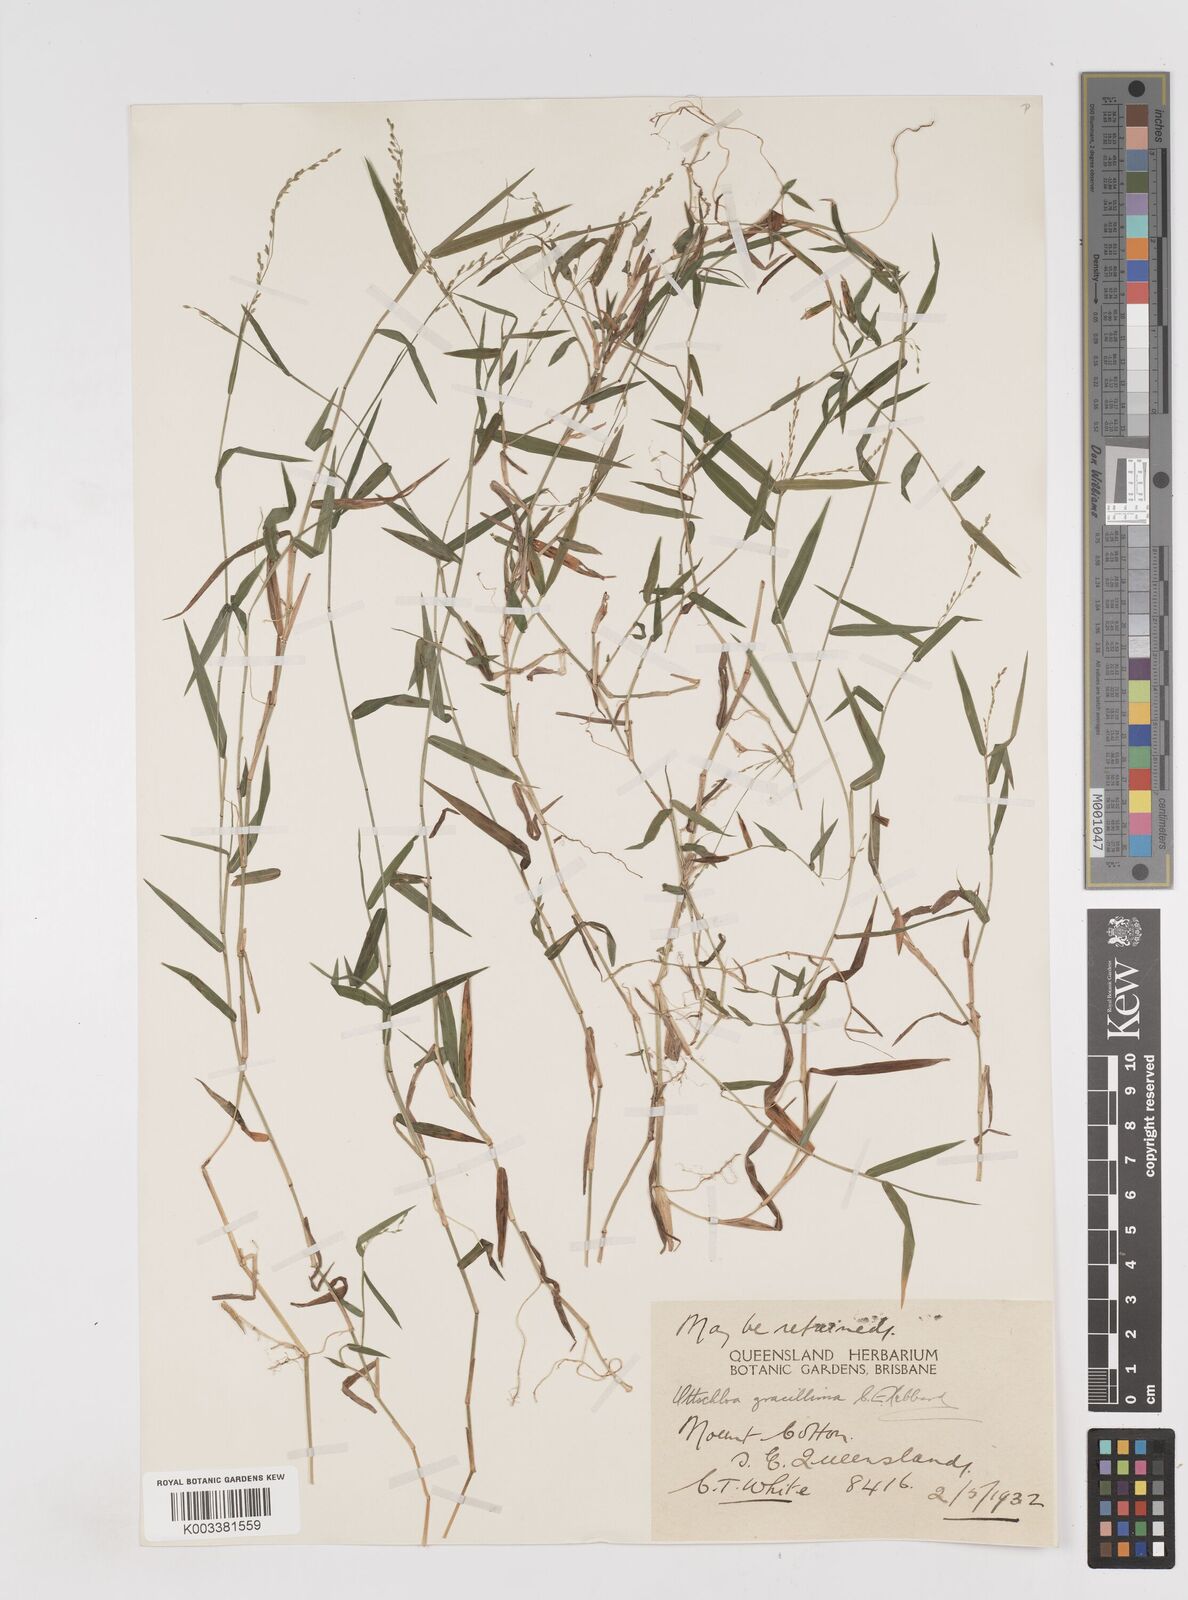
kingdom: Plantae
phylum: Tracheophyta
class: Liliopsida
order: Poales
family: Poaceae
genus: Ottochloa
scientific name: Ottochloa gracillima
